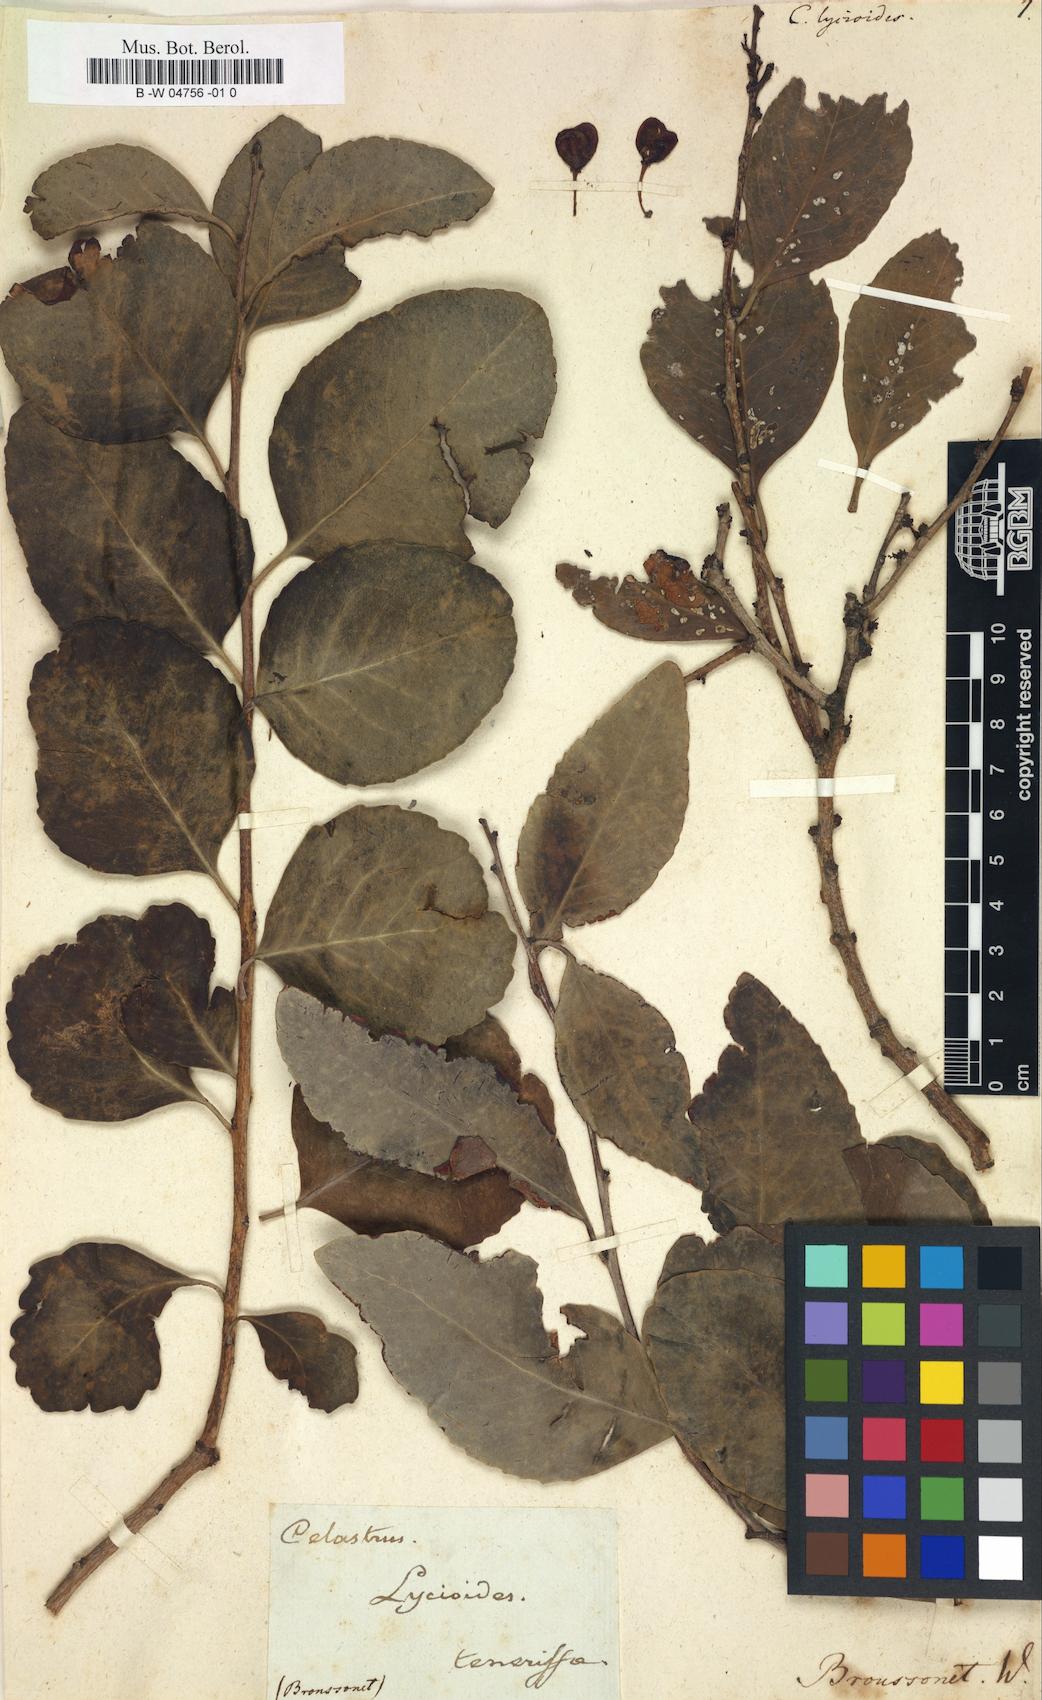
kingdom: Plantae
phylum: Tracheophyta
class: Magnoliopsida
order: Celastrales
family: Celastraceae
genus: Celastrus
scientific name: Celastrus lycioides
